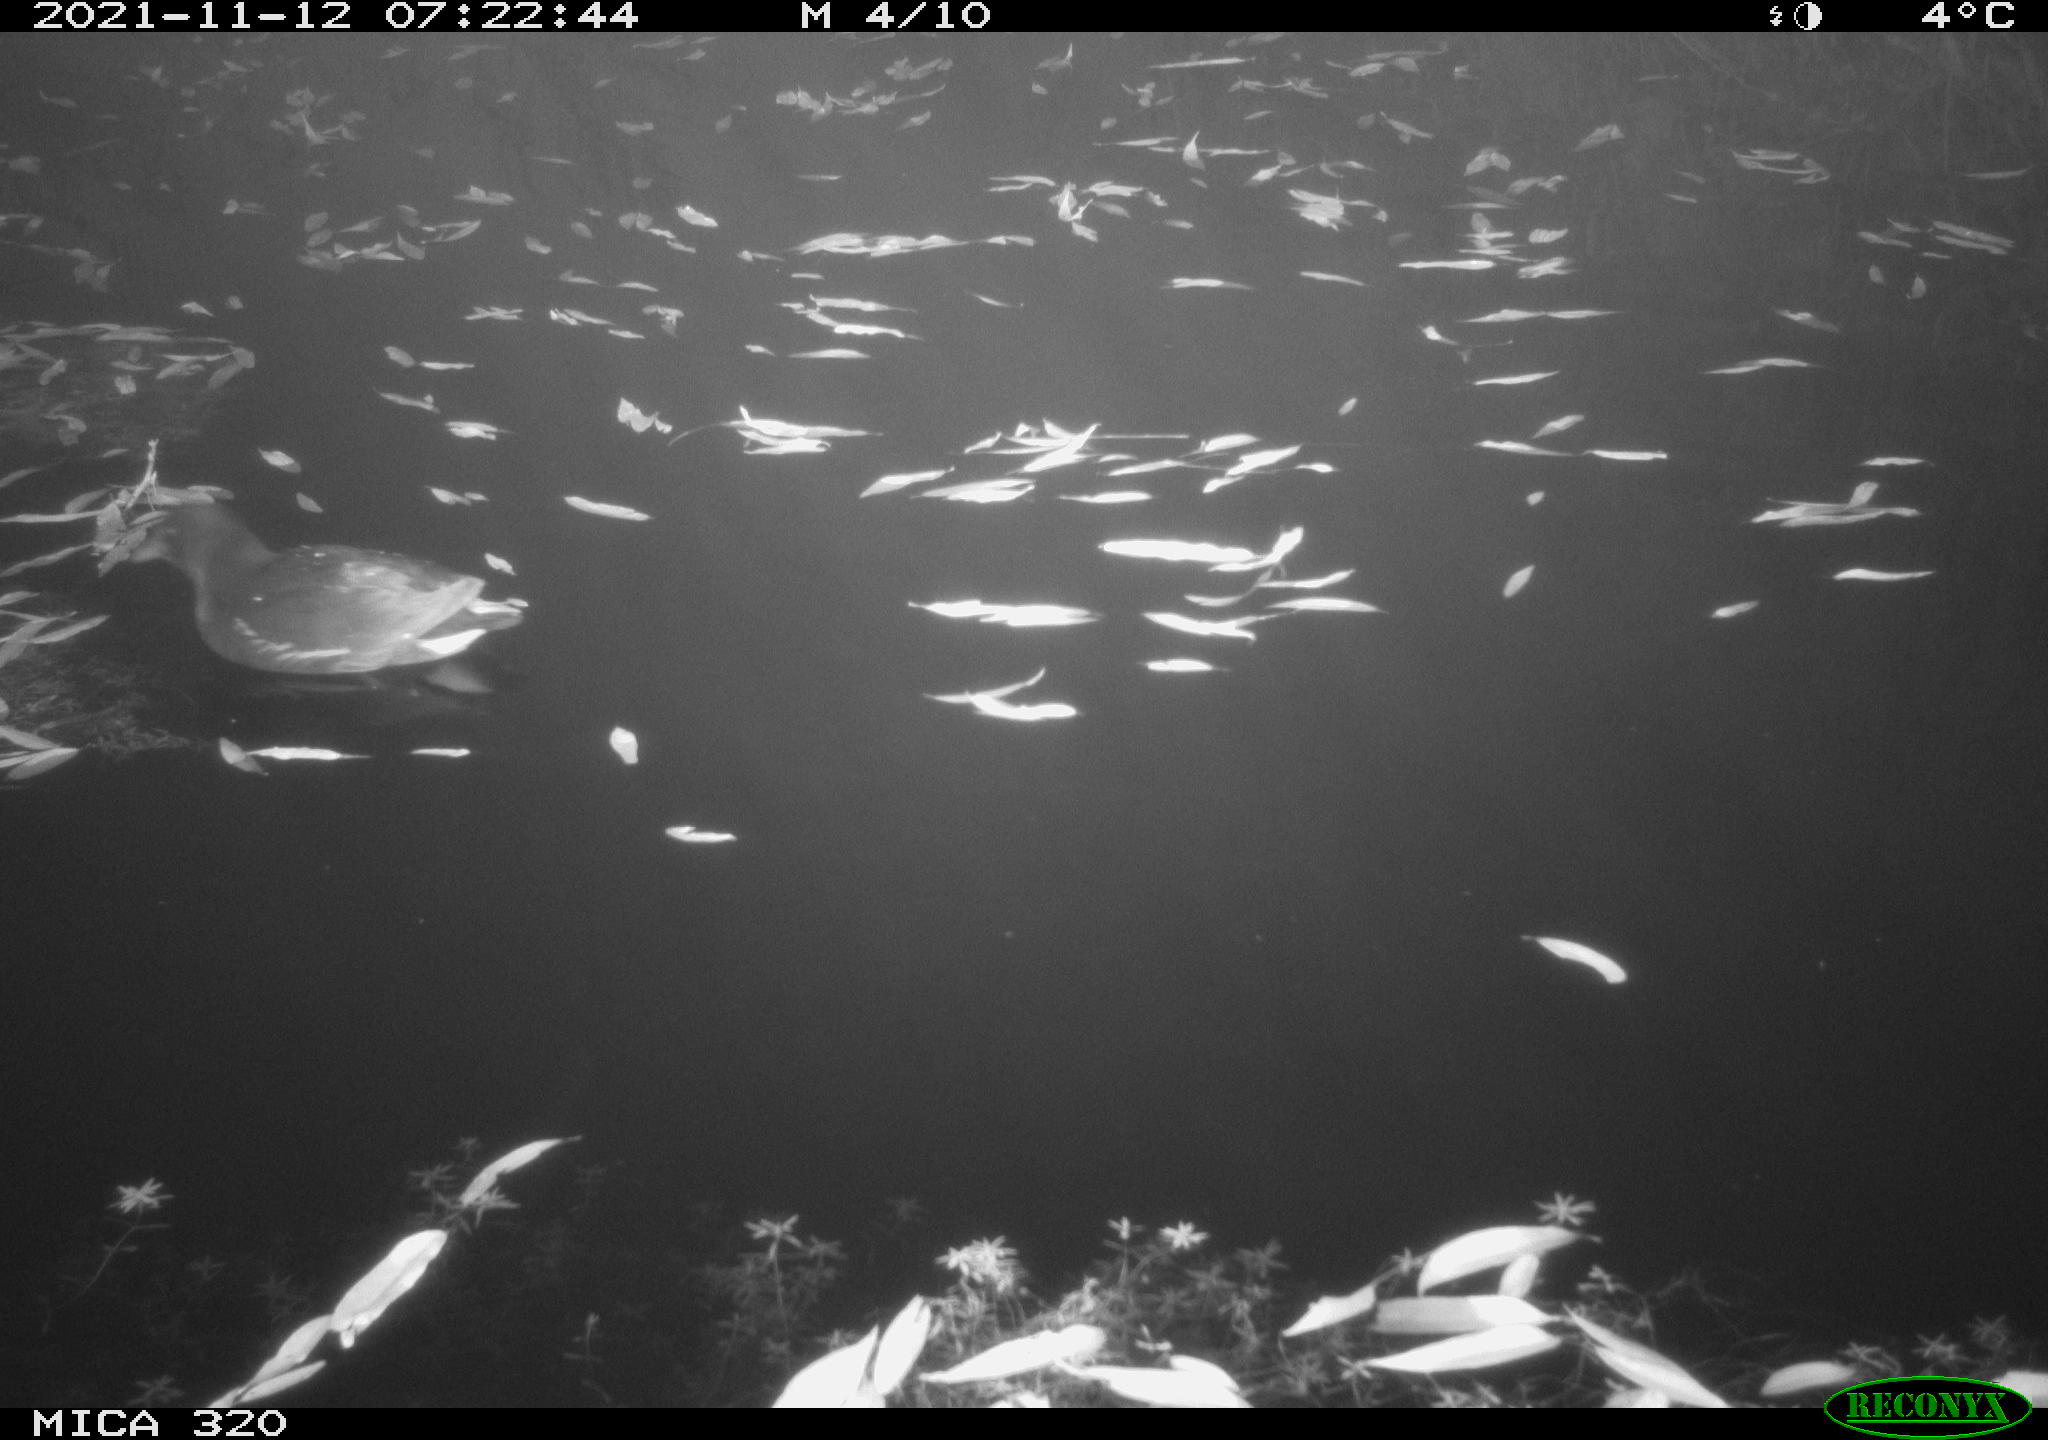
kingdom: Animalia
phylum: Chordata
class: Aves
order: Gruiformes
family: Rallidae
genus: Gallinula
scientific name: Gallinula chloropus
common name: Common moorhen
